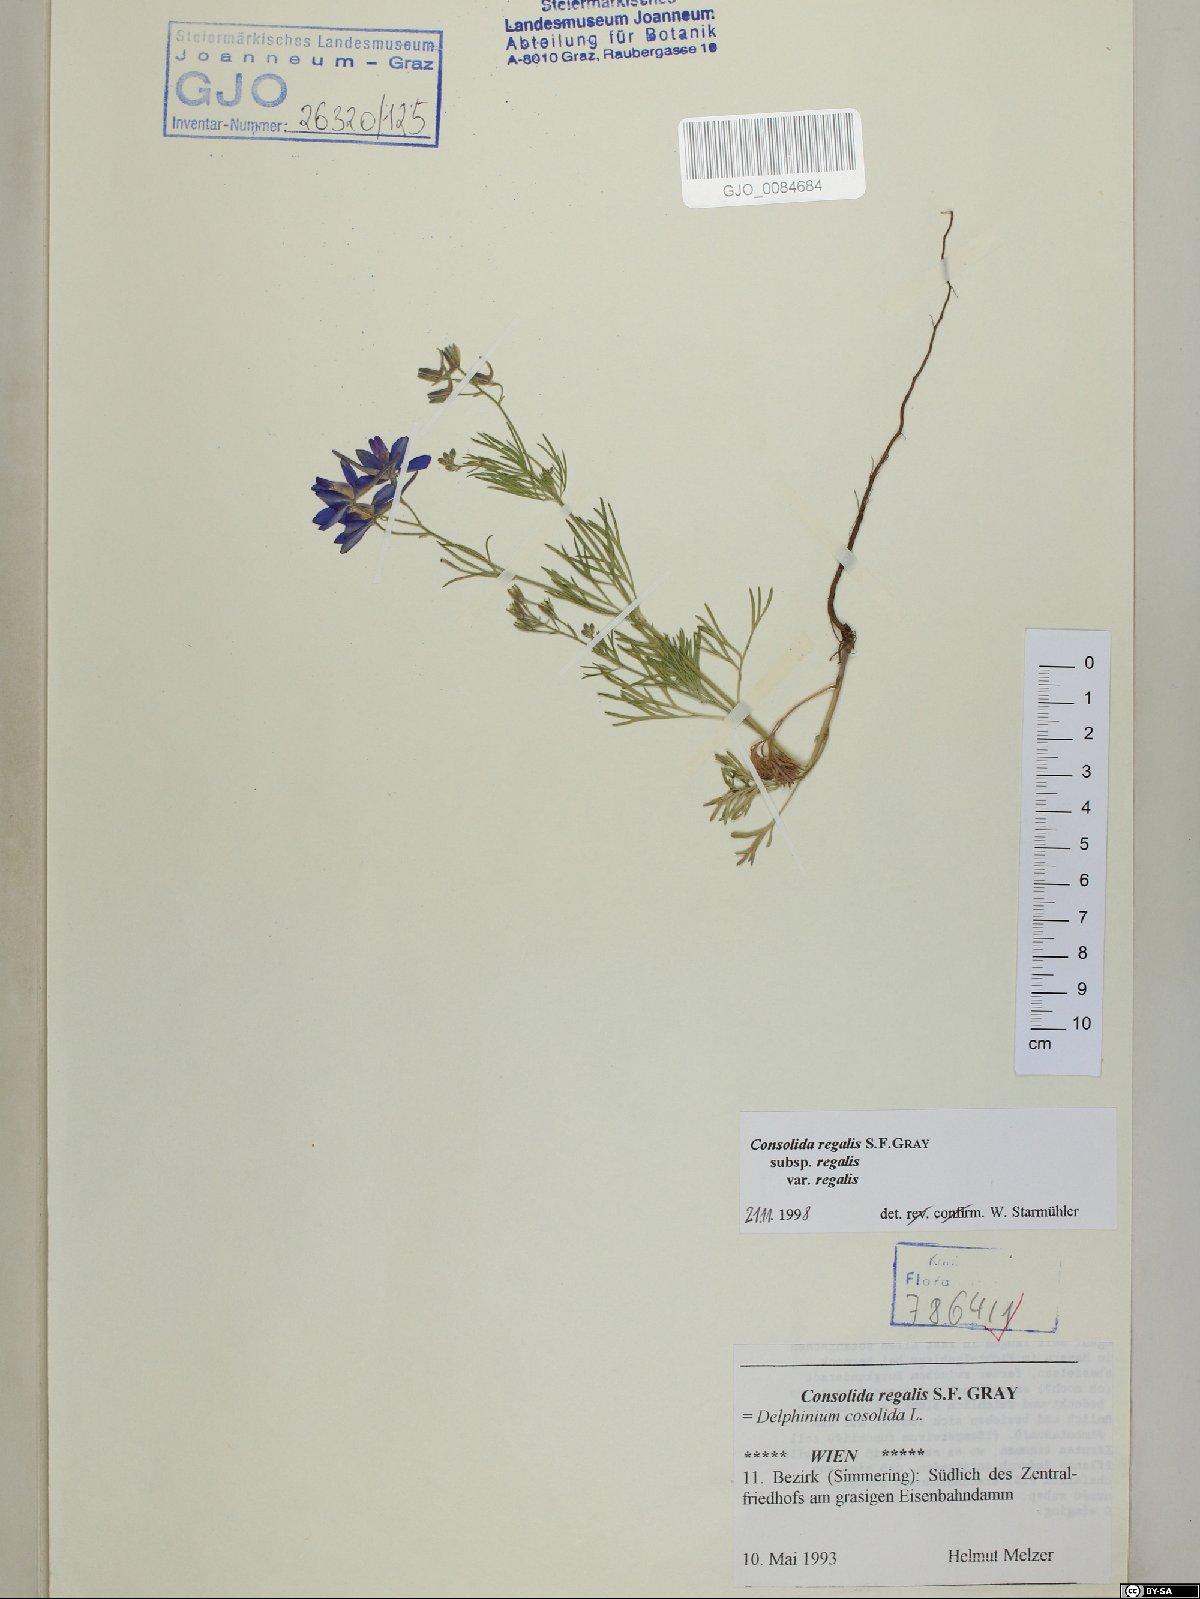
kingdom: Plantae
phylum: Tracheophyta
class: Magnoliopsida
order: Ranunculales
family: Ranunculaceae
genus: Delphinium
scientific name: Delphinium consolida
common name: Branching larkspur
